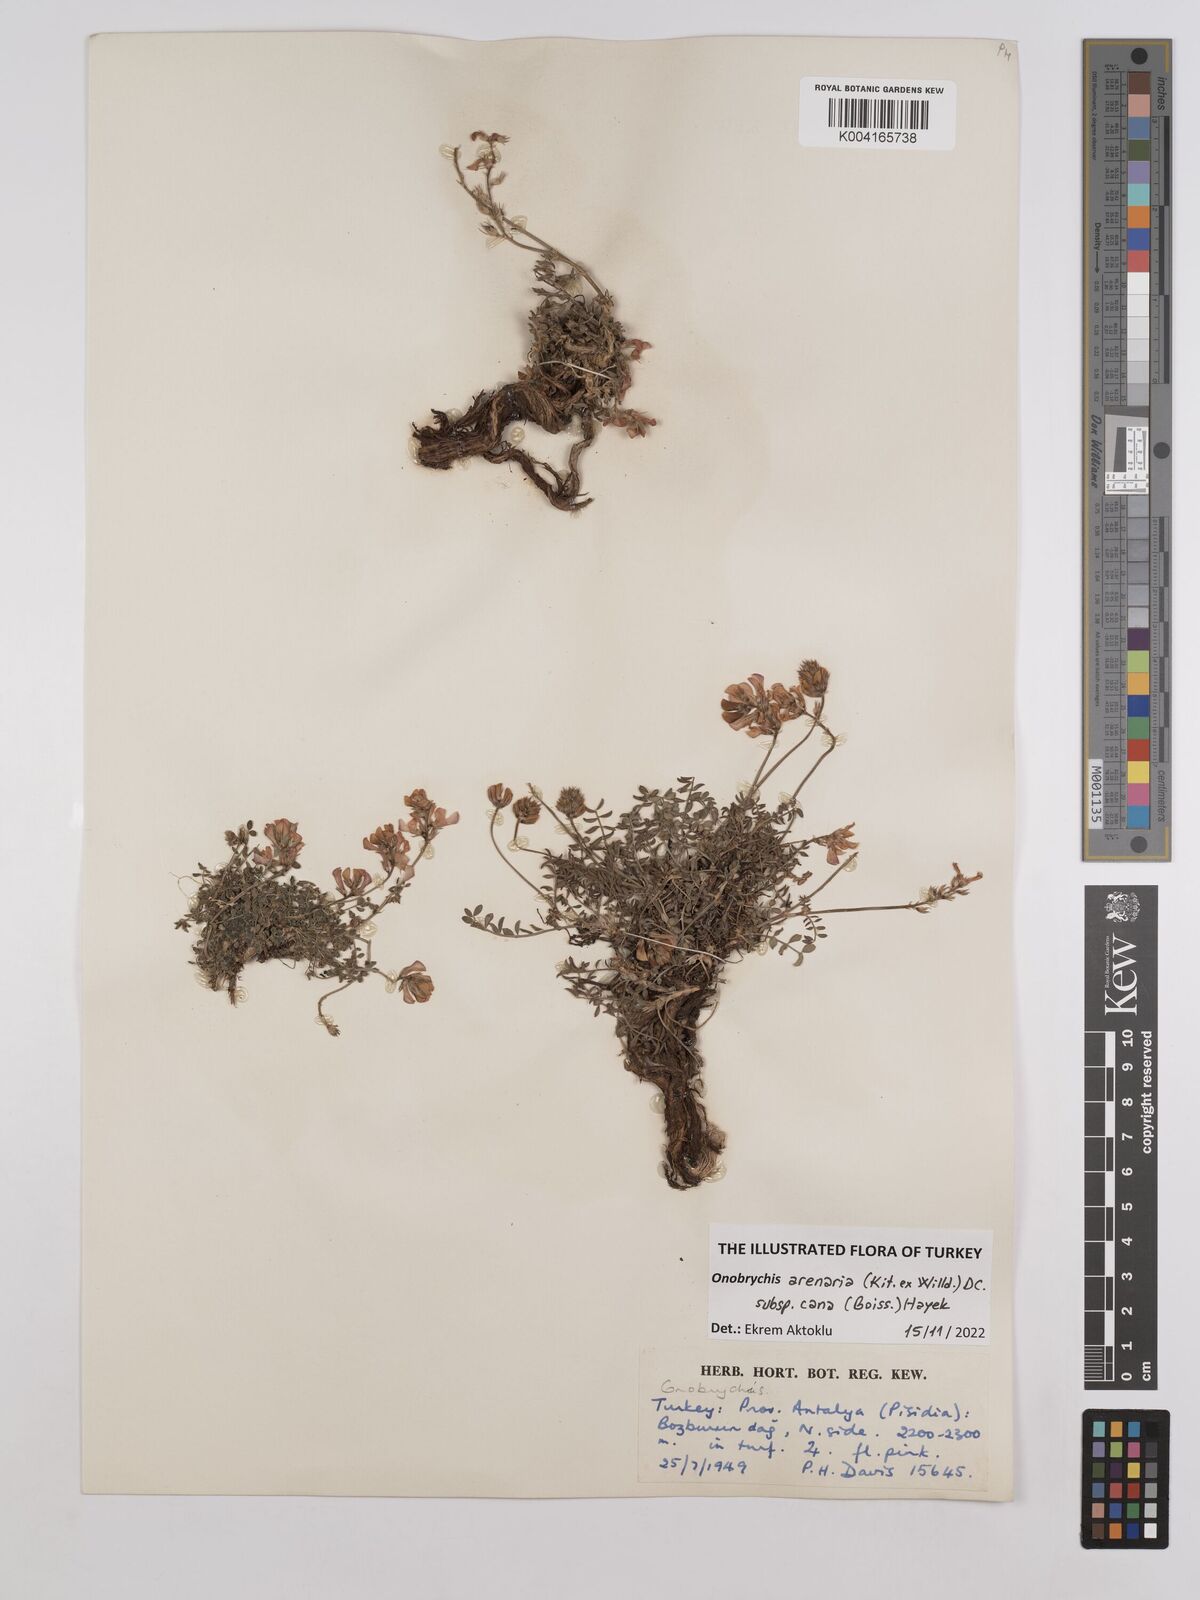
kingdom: Plantae
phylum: Tracheophyta
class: Magnoliopsida
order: Fabales
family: Fabaceae
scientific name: Fabaceae
